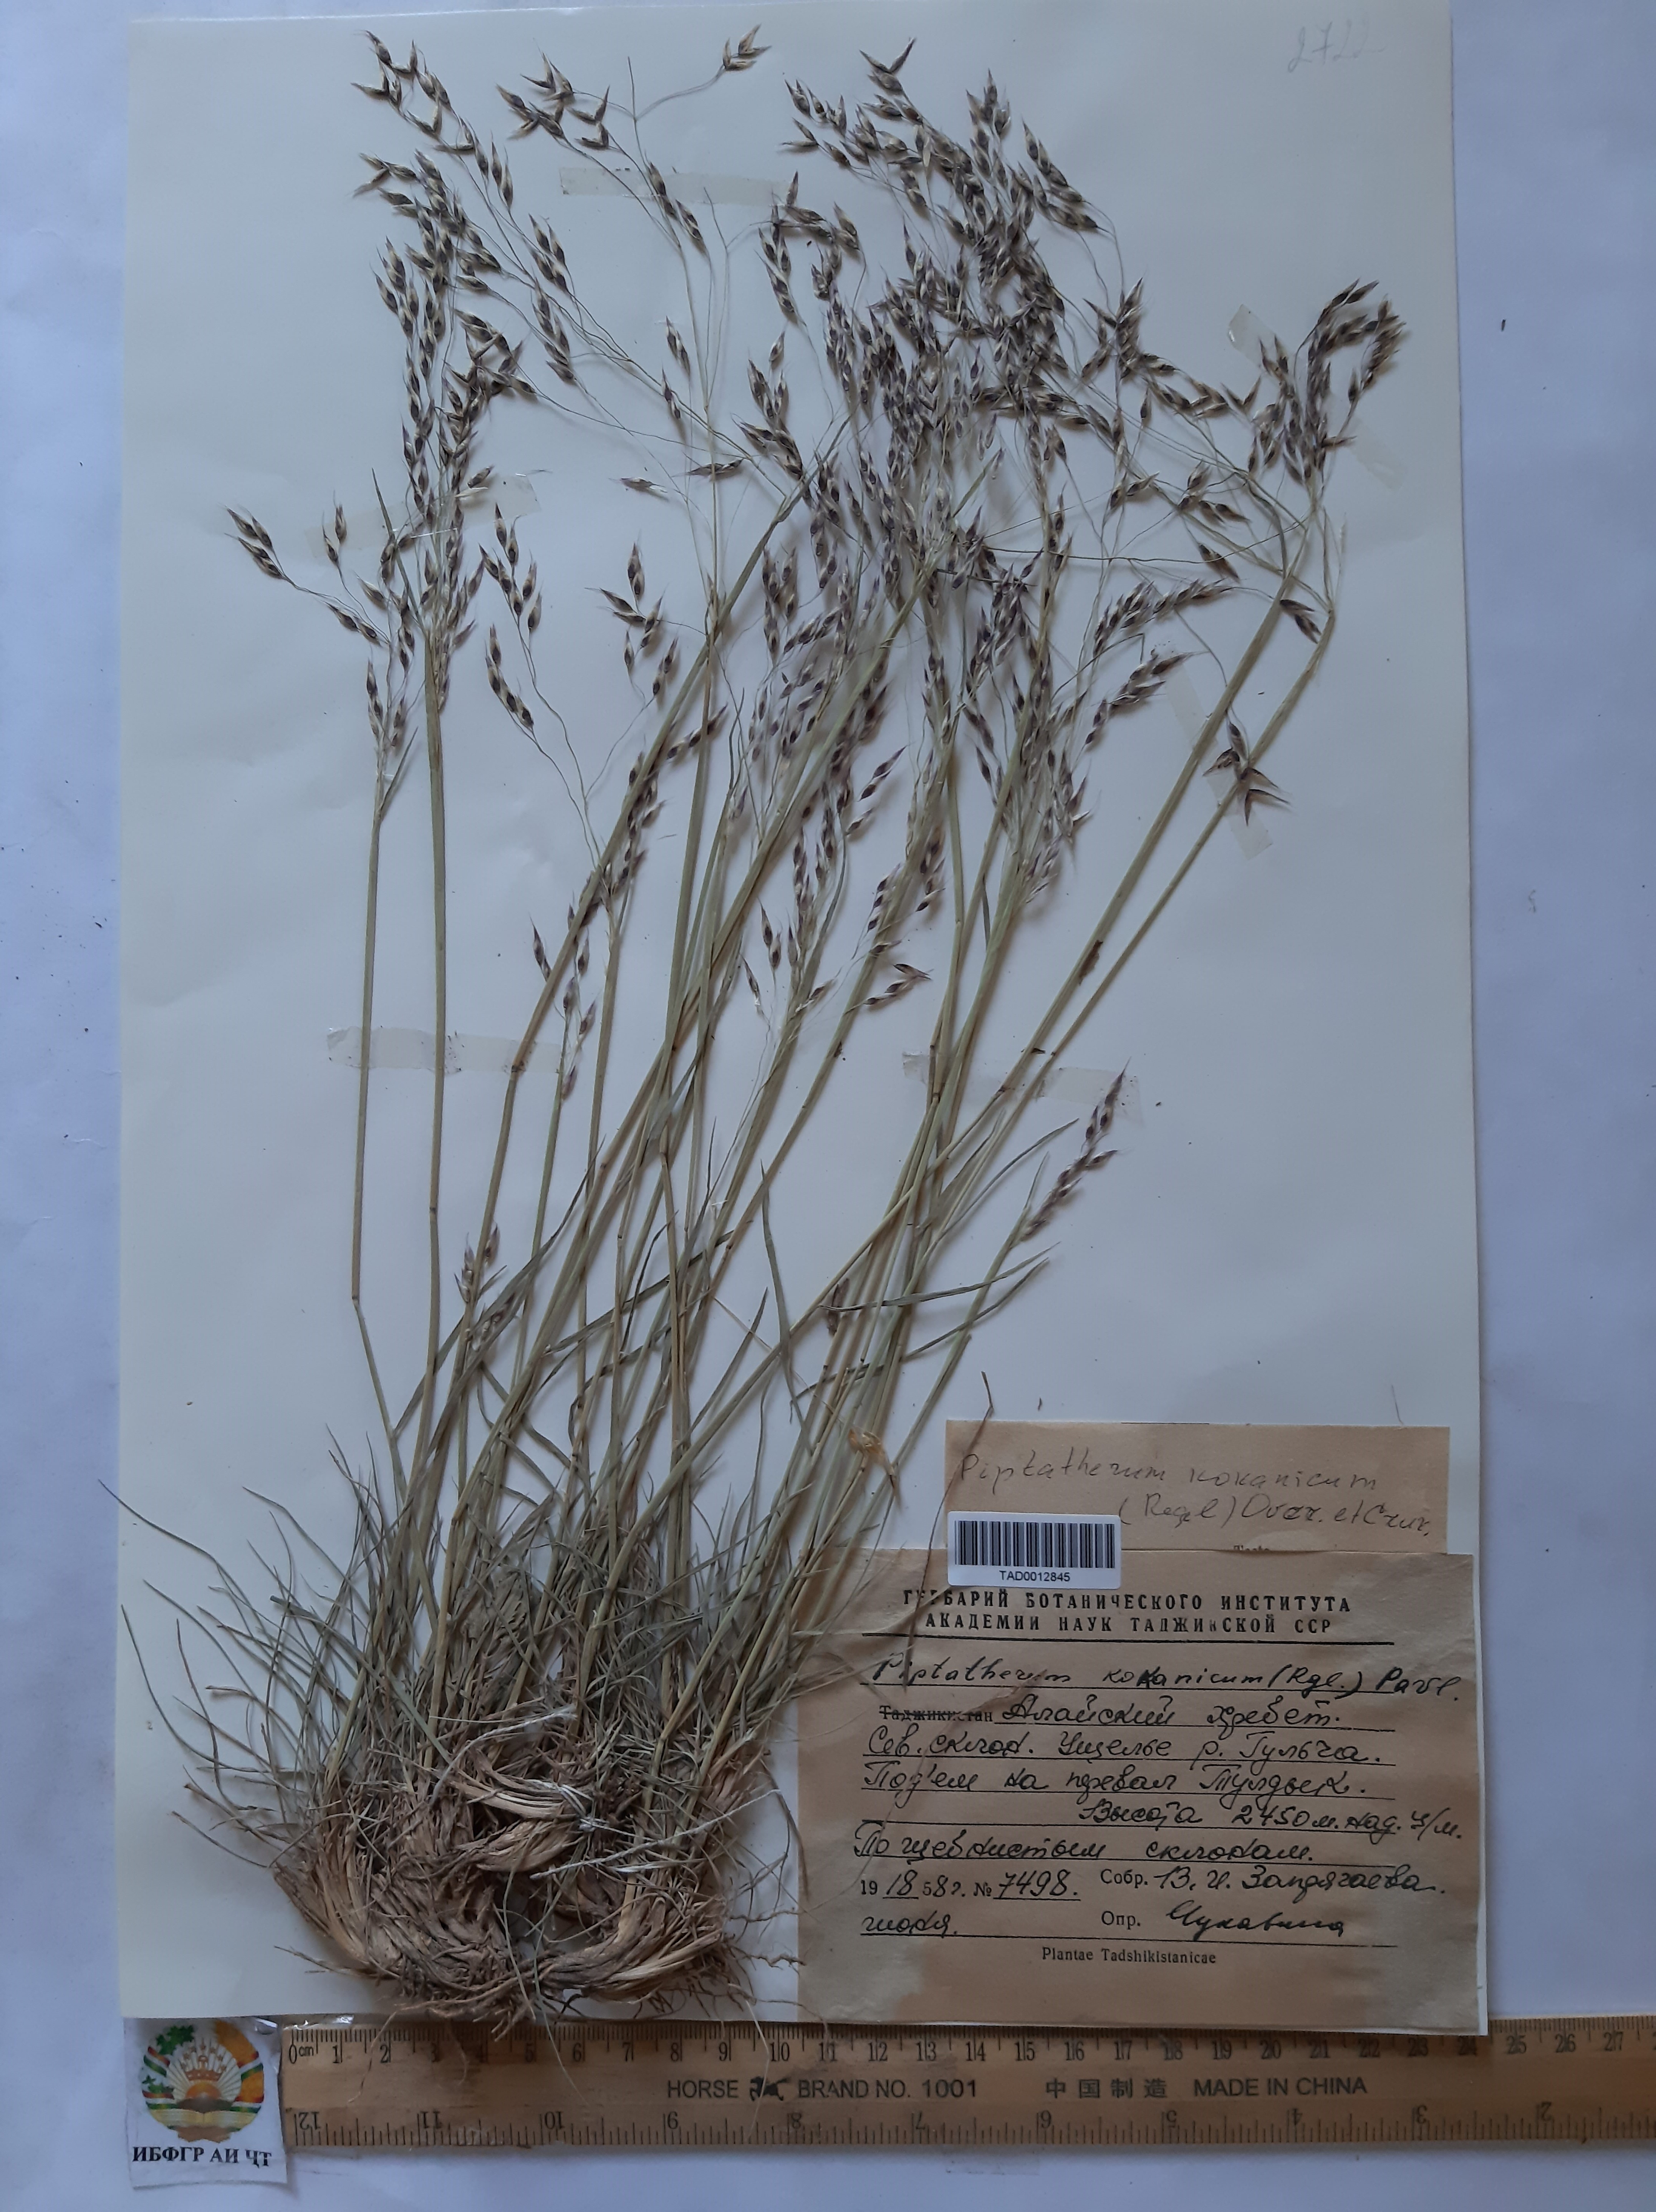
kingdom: Plantae
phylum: Tracheophyta
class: Liliopsida
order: Poales
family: Poaceae
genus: Piptatherum
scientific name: Piptatherum songaricum
